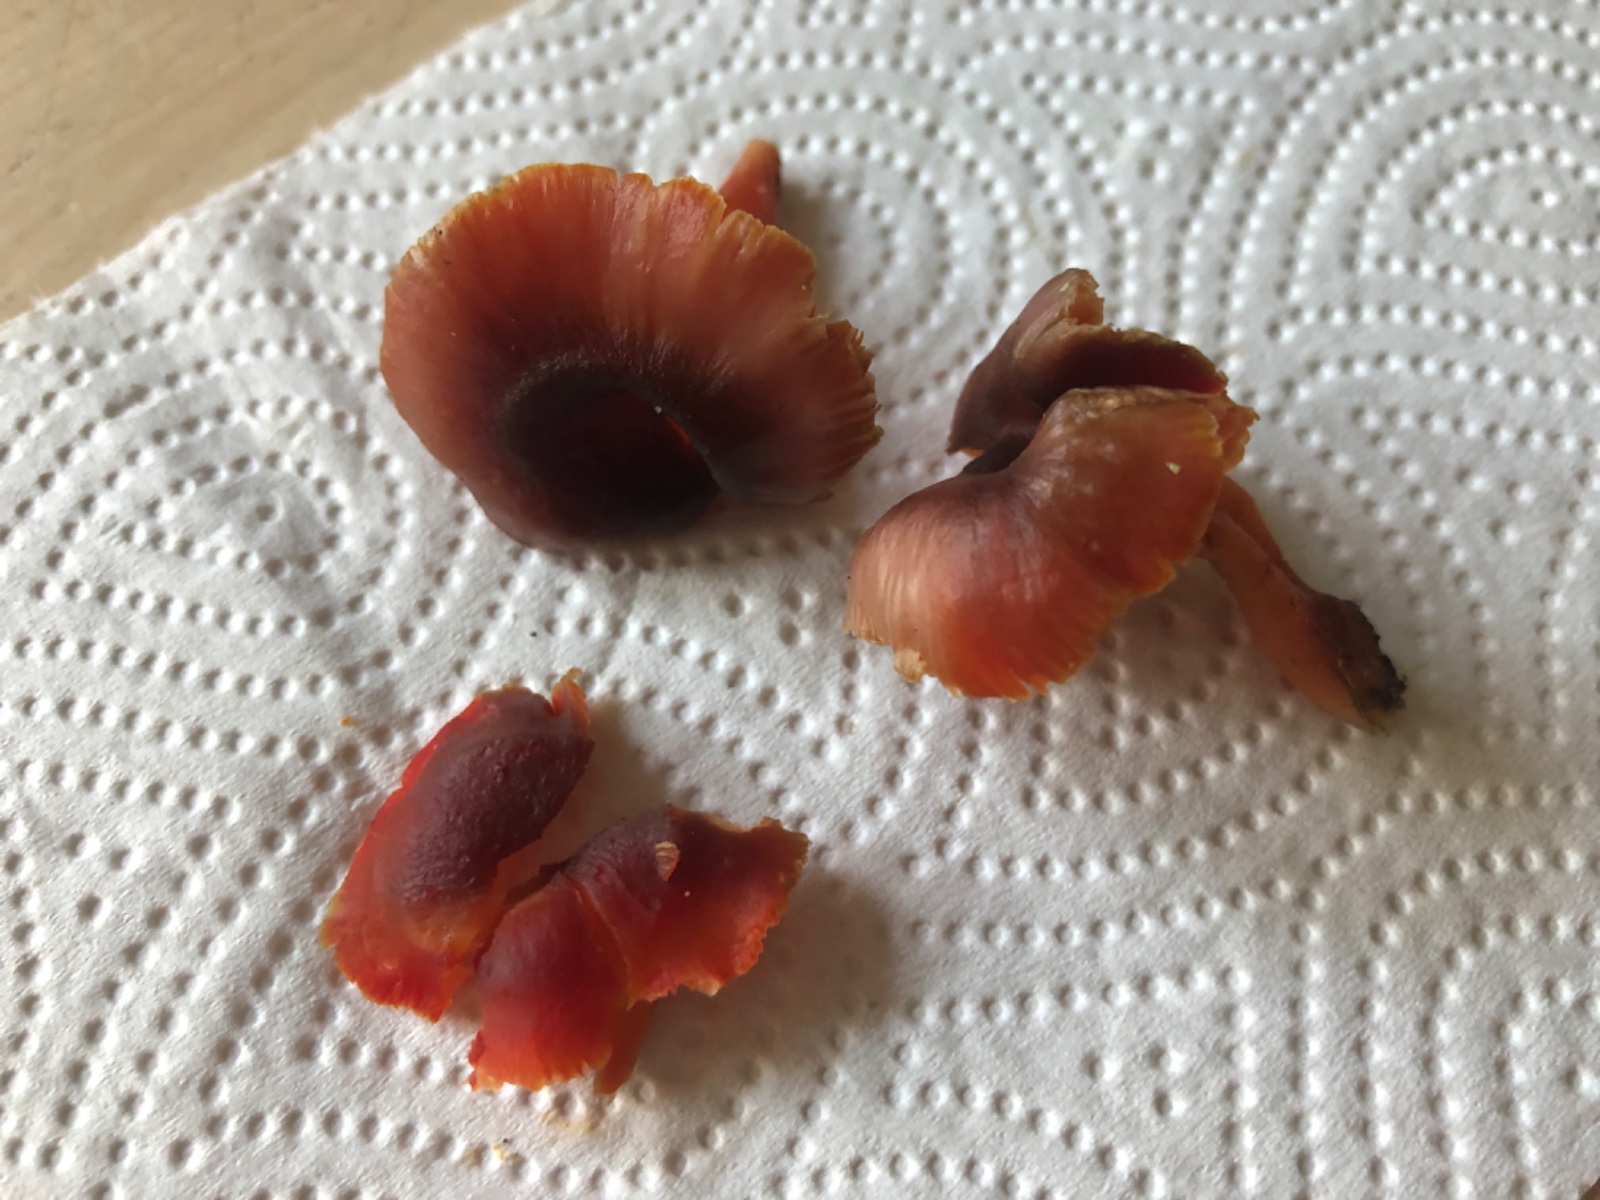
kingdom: Fungi
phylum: Basidiomycota
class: Agaricomycetes
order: Agaricales
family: Hygrophoraceae
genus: Hygrocybe
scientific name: Hygrocybe phaeococcinea
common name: sortdugget vokshat
